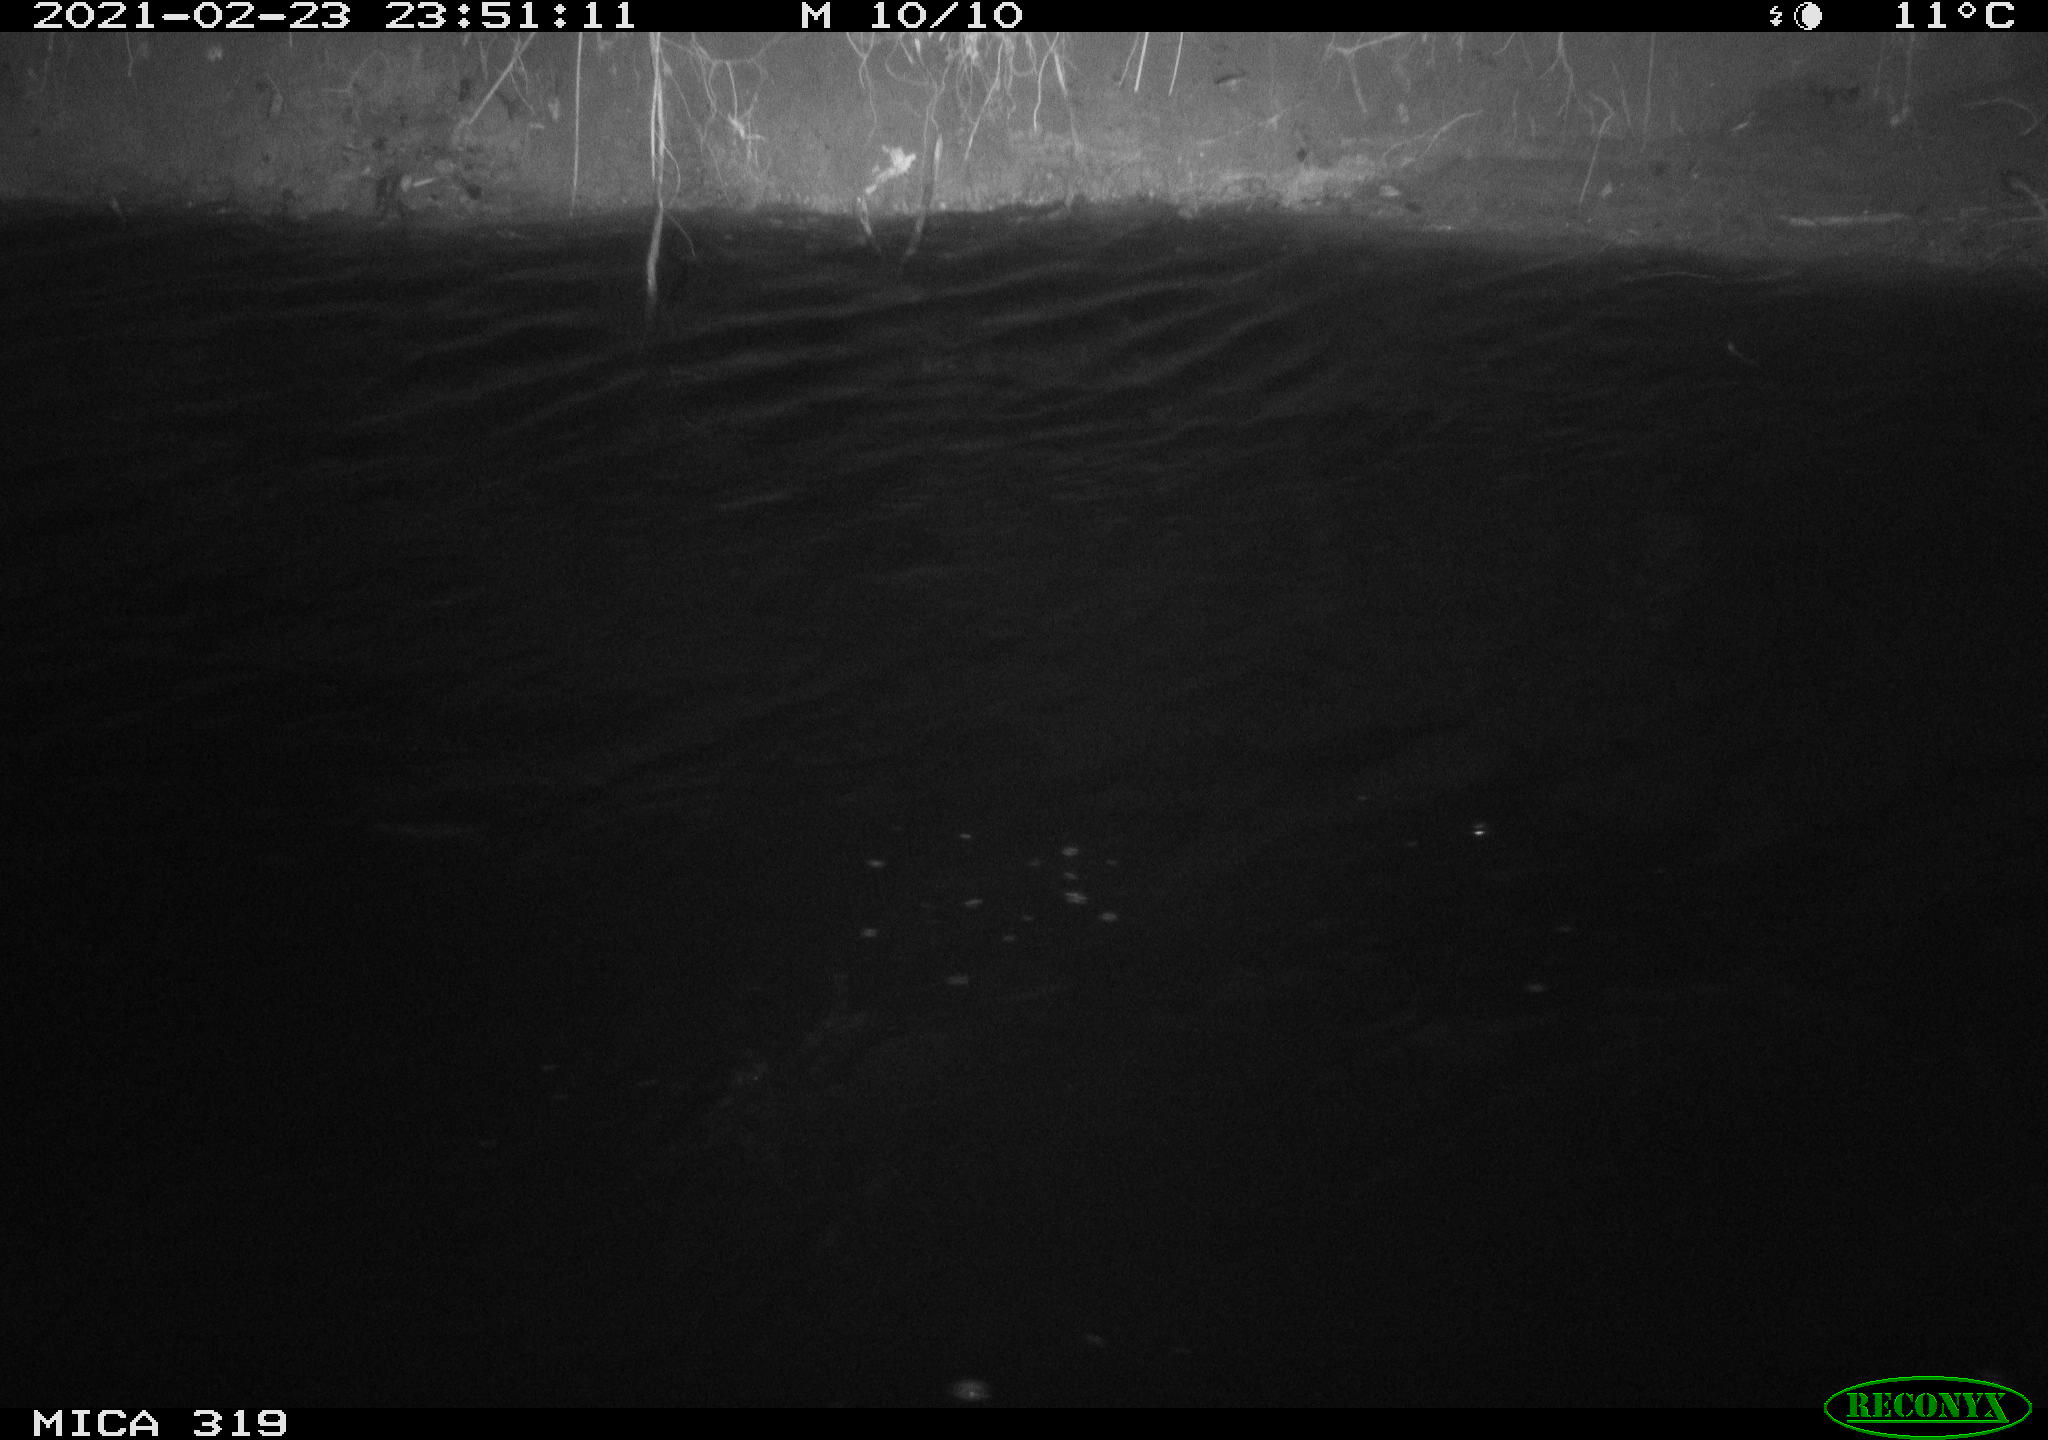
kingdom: Animalia
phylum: Chordata
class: Aves
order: Anseriformes
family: Anatidae
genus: Anas
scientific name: Anas platyrhynchos
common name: Mallard
